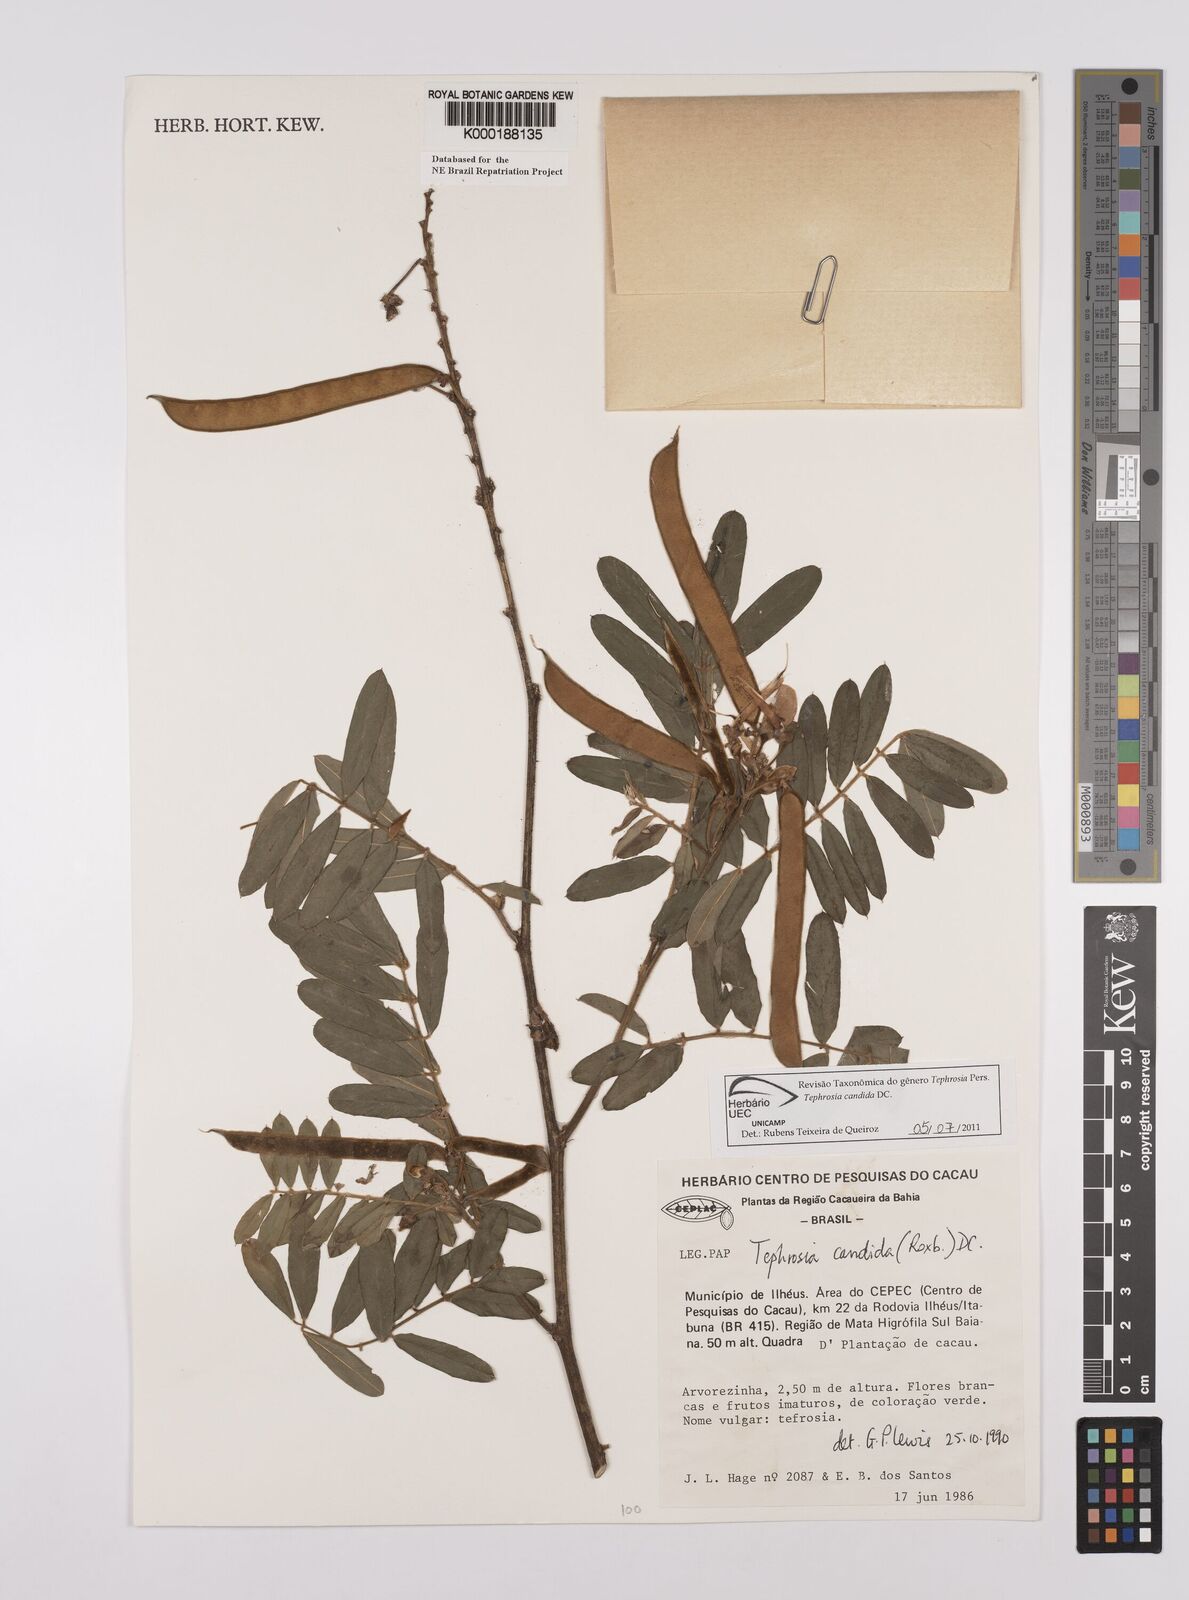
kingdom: Plantae
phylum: Tracheophyta
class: Magnoliopsida
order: Fabales
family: Fabaceae
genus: Tephrosia
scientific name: Tephrosia candida
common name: White tephrosia
